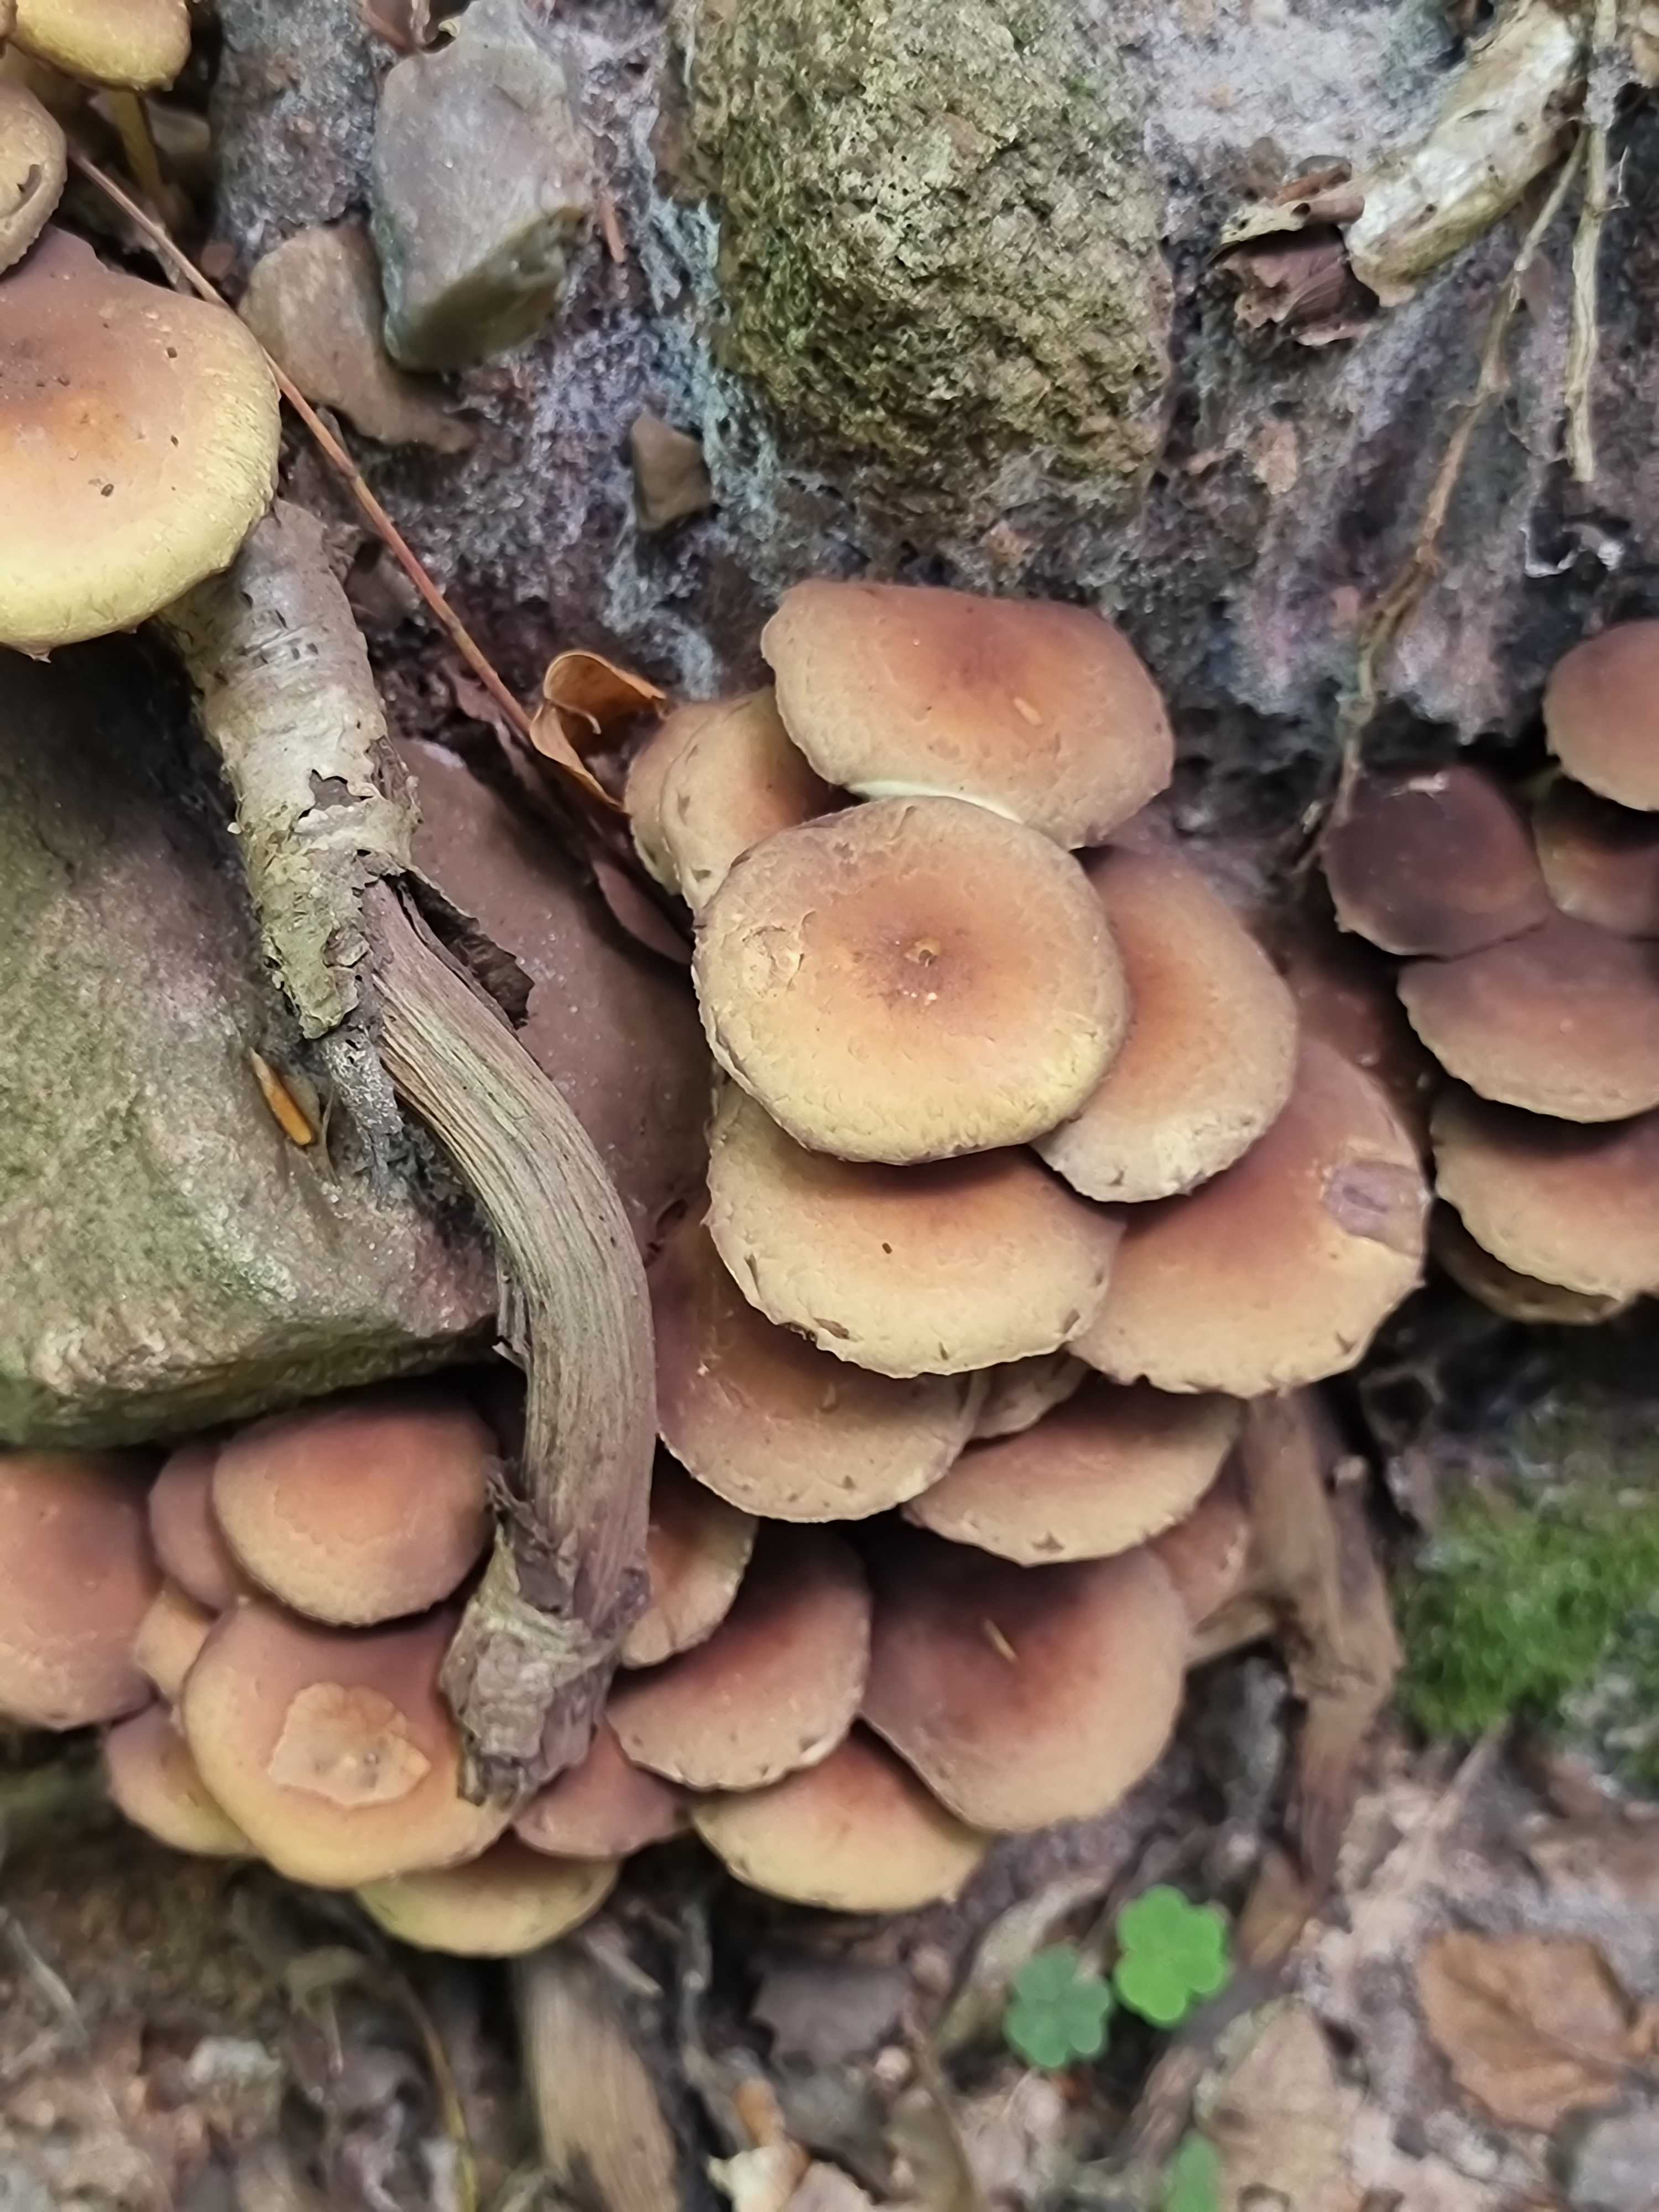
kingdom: Fungi
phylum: Basidiomycota
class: Agaricomycetes
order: Agaricales
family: Strophariaceae
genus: Hypholoma
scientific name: Hypholoma fasciculare
